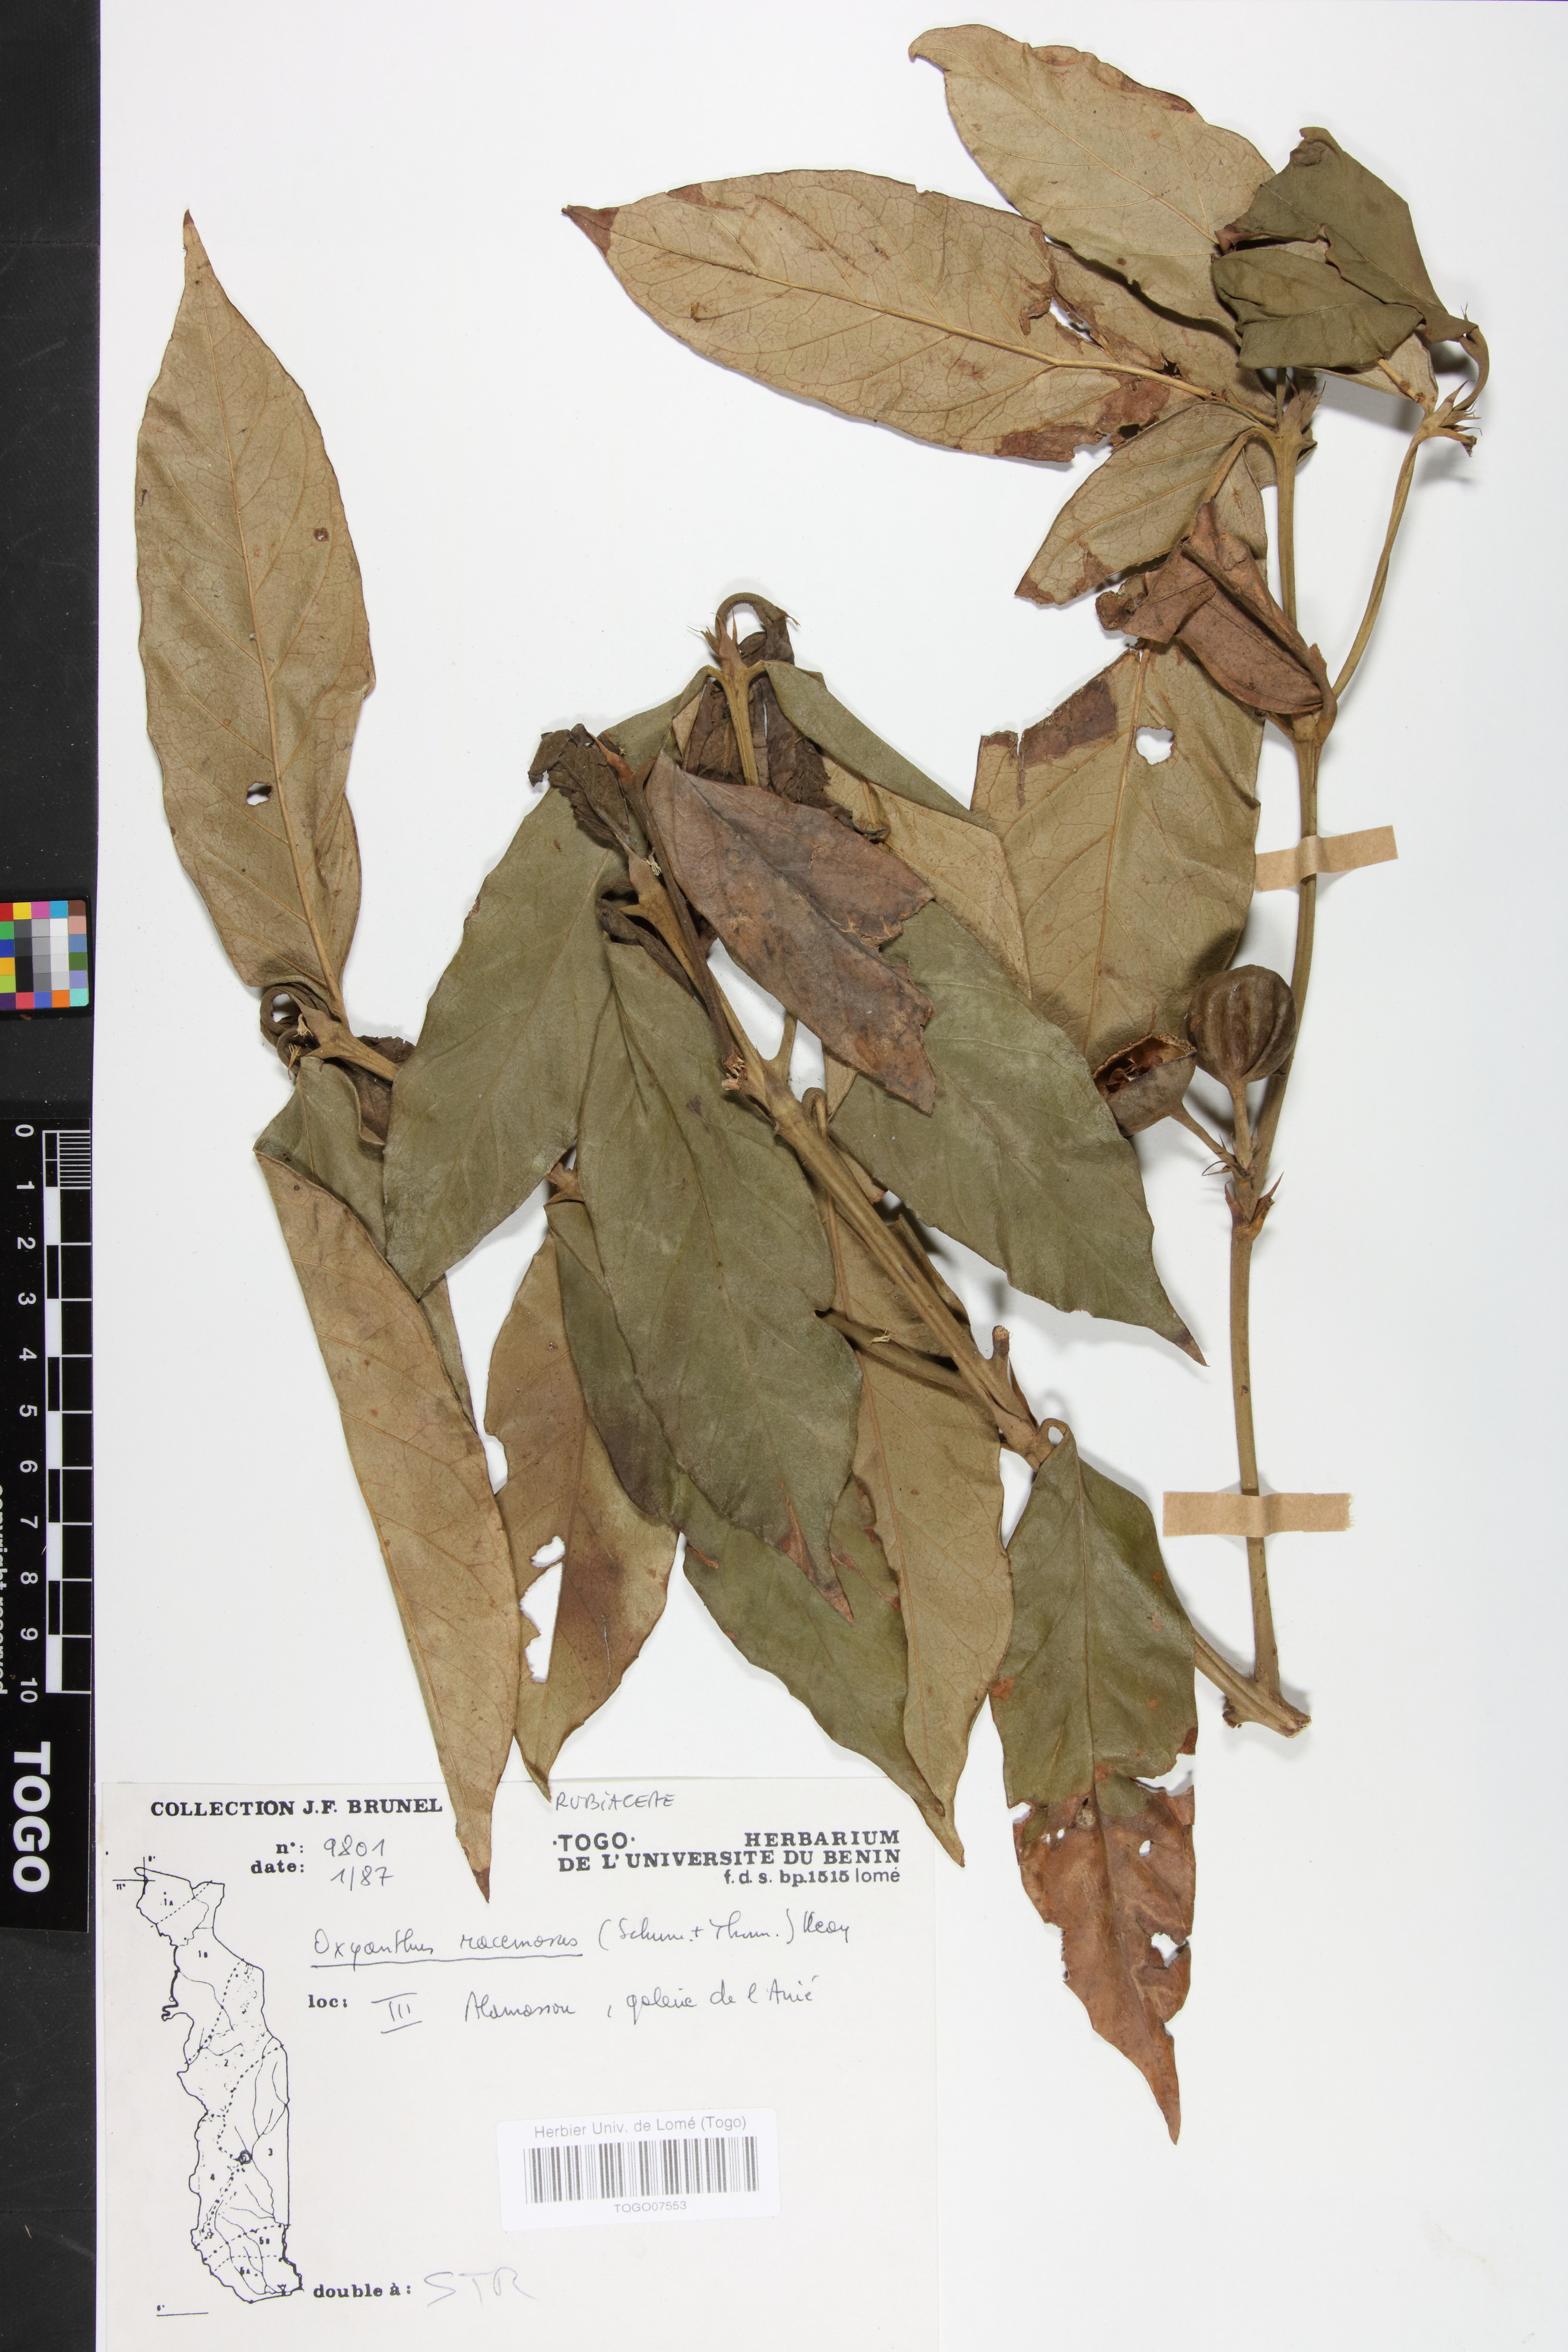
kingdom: Plantae
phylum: Tracheophyta
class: Magnoliopsida
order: Gentianales
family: Rubiaceae
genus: Oxyanthus
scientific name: Oxyanthus racemosus
